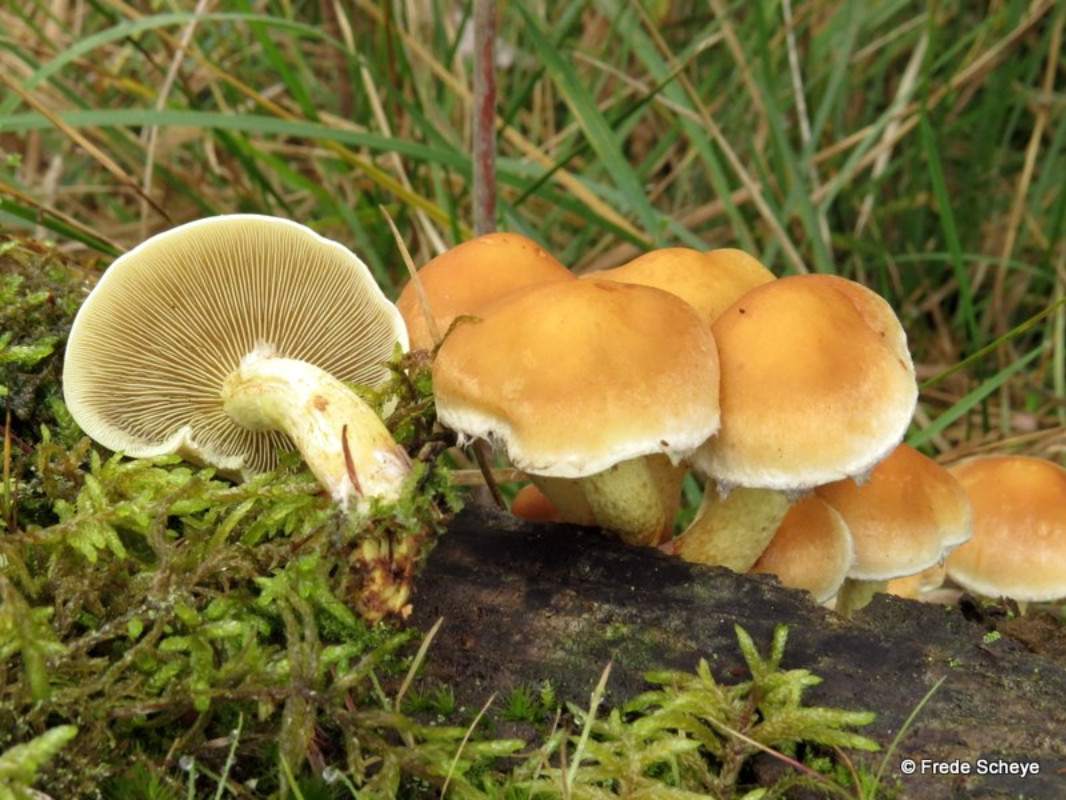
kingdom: Fungi
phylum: Basidiomycota
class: Agaricomycetes
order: Agaricales
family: Strophariaceae
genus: Hypholoma
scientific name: Hypholoma fasciculare
